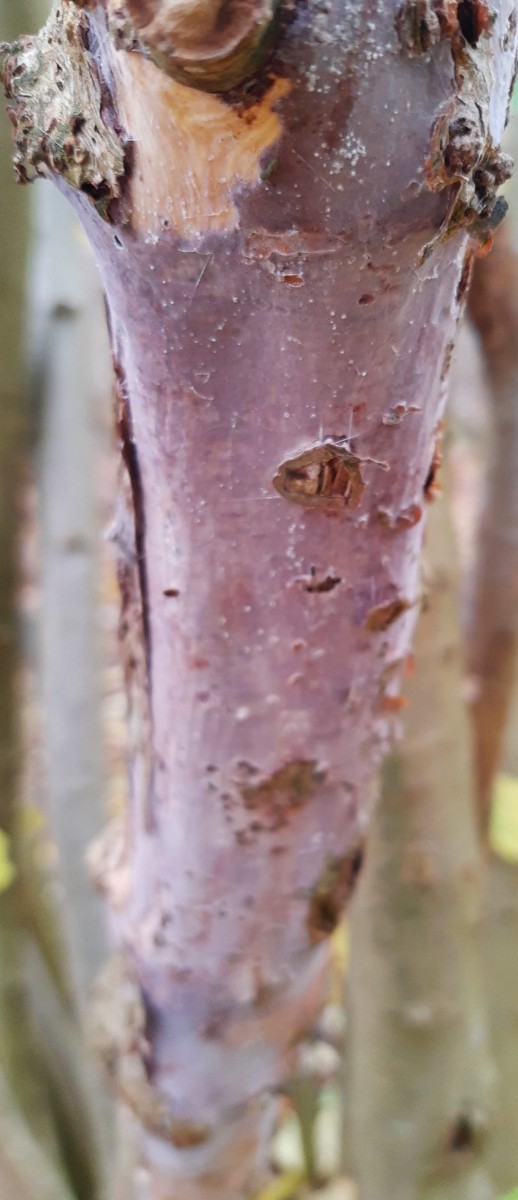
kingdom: Fungi
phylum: Basidiomycota
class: Agaricomycetes
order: Corticiales
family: Vuilleminiaceae
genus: Vuilleminia
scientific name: Vuilleminia coryli
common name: hassel-barksprænger
